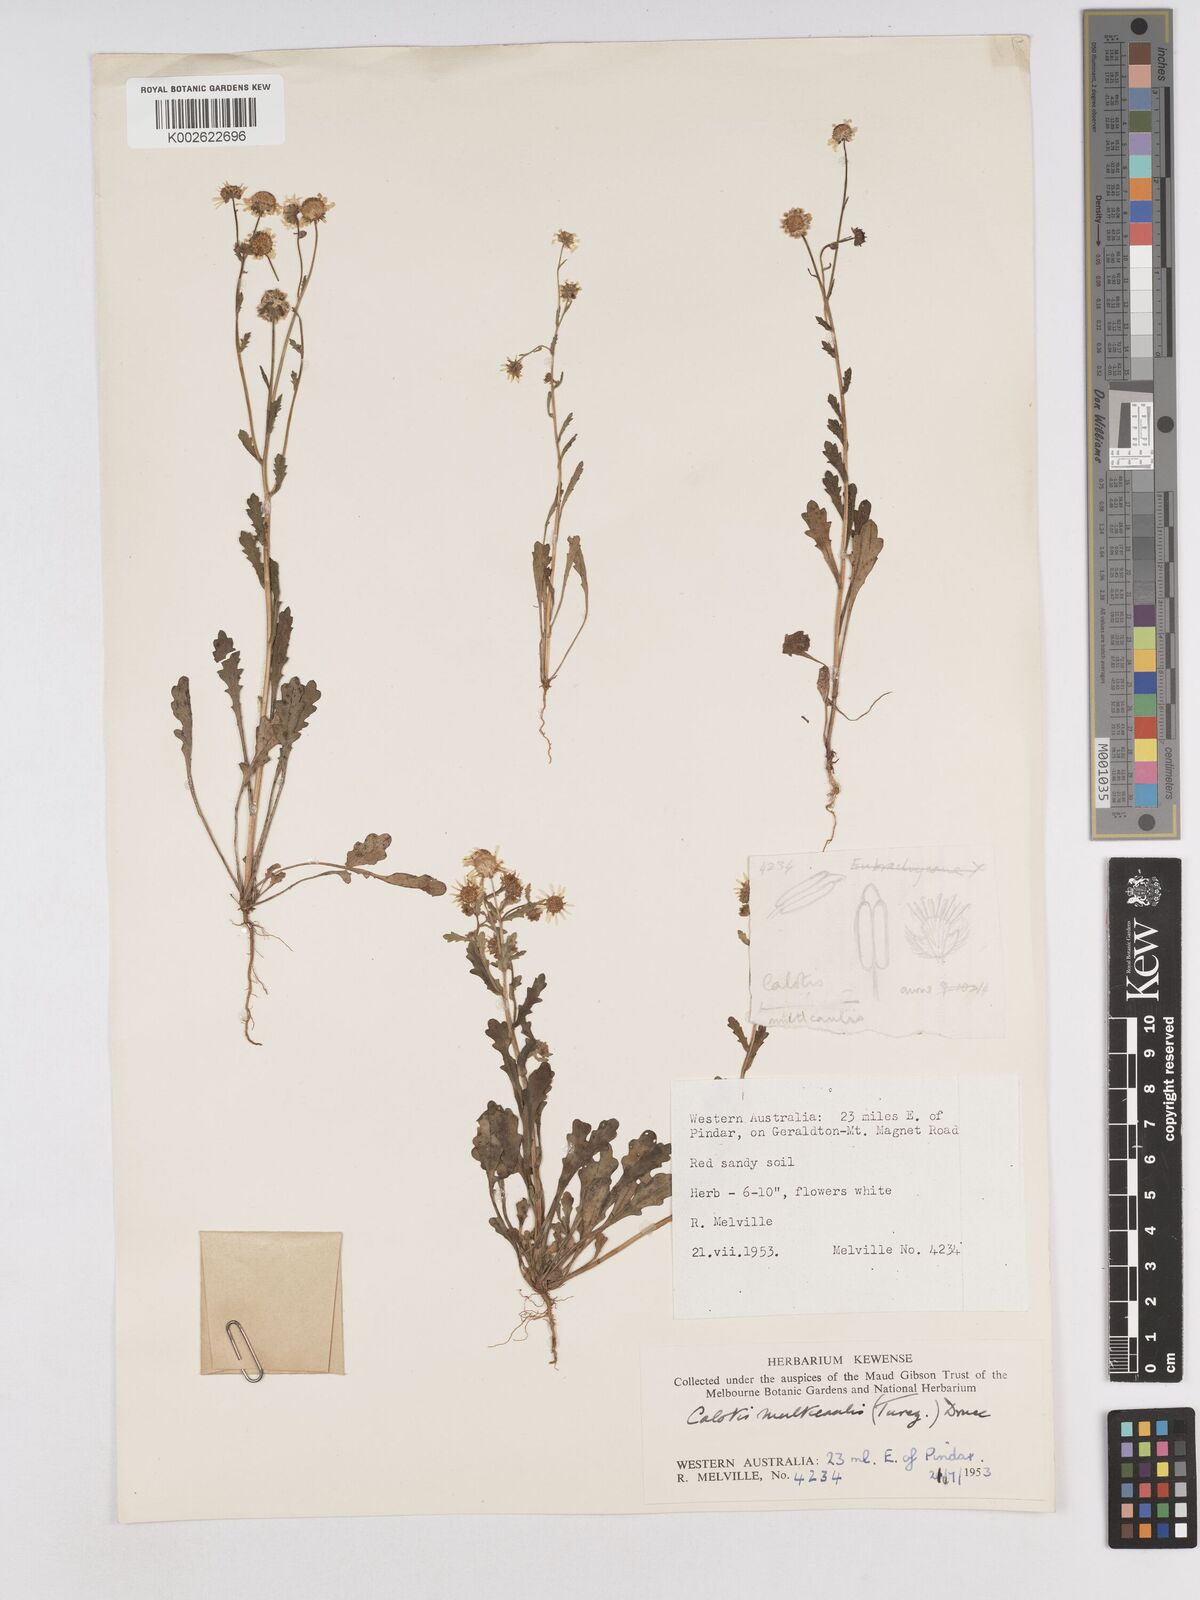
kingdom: Plantae
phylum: Tracheophyta
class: Magnoliopsida
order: Asterales
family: Asteraceae
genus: Calotis
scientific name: Calotis multicaulis
